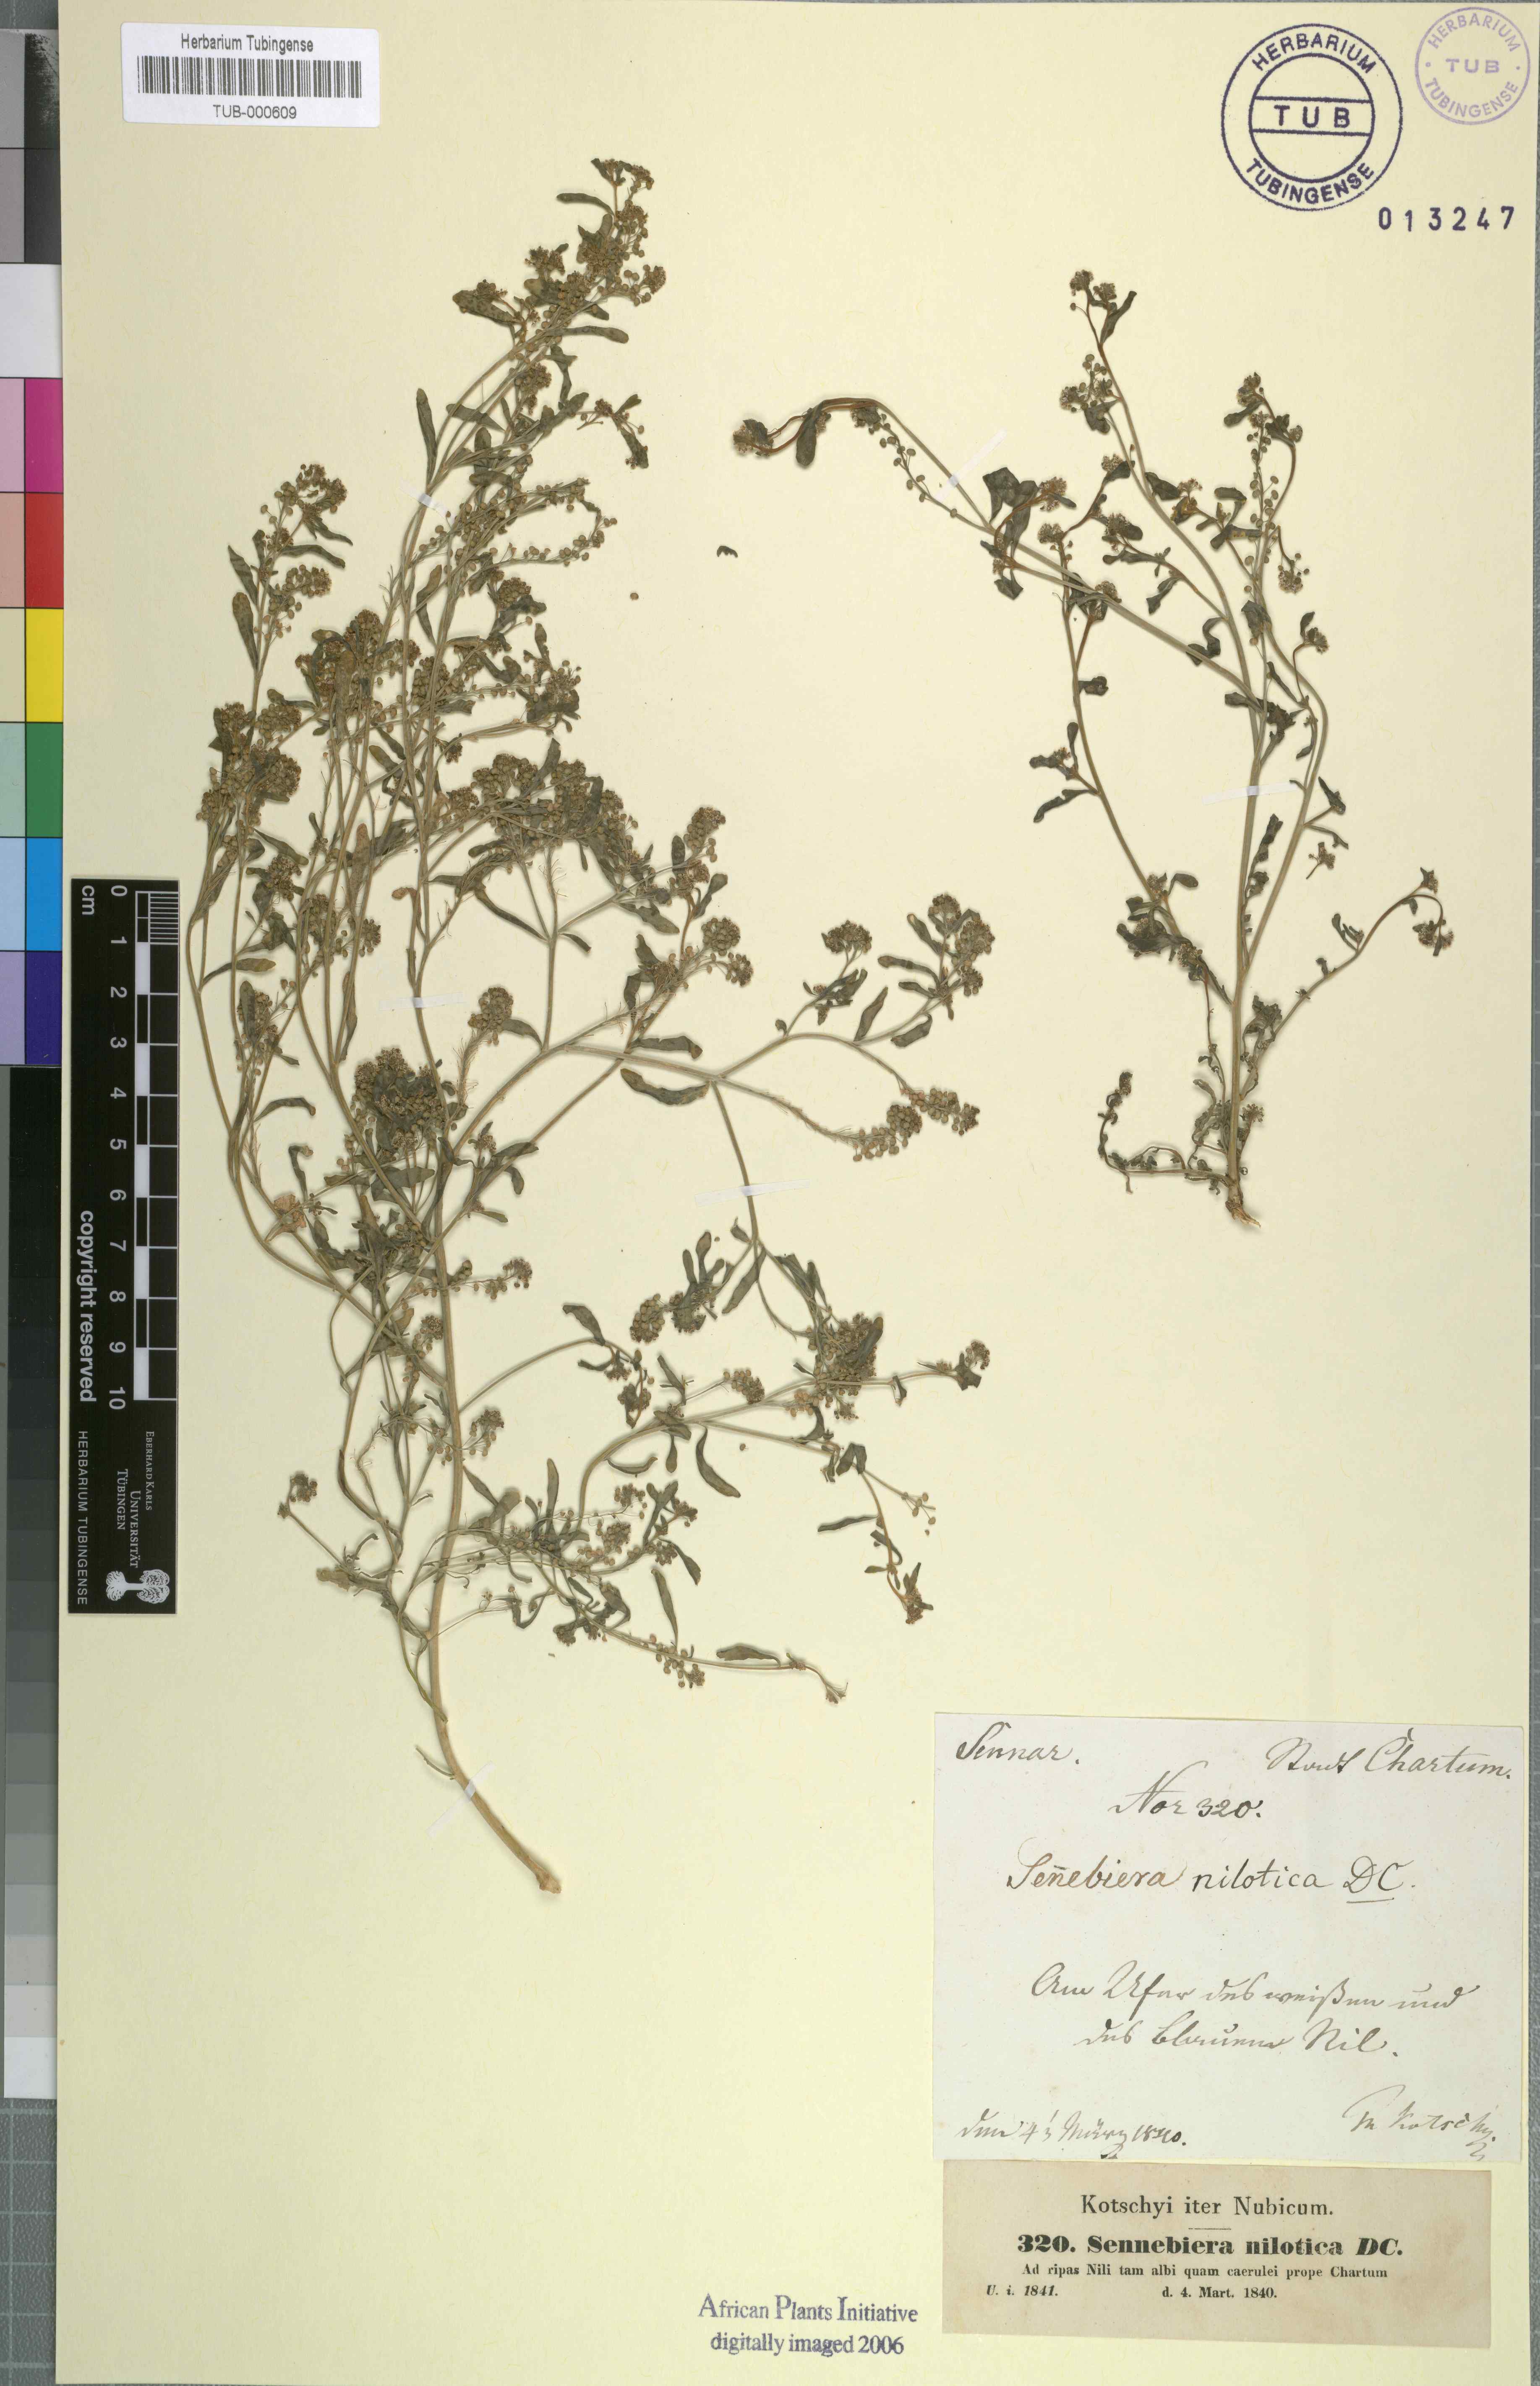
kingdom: Plantae
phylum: Tracheophyta
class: Magnoliopsida
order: Brassicales
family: Brassicaceae
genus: Lepidium
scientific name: Lepidium niloticum
